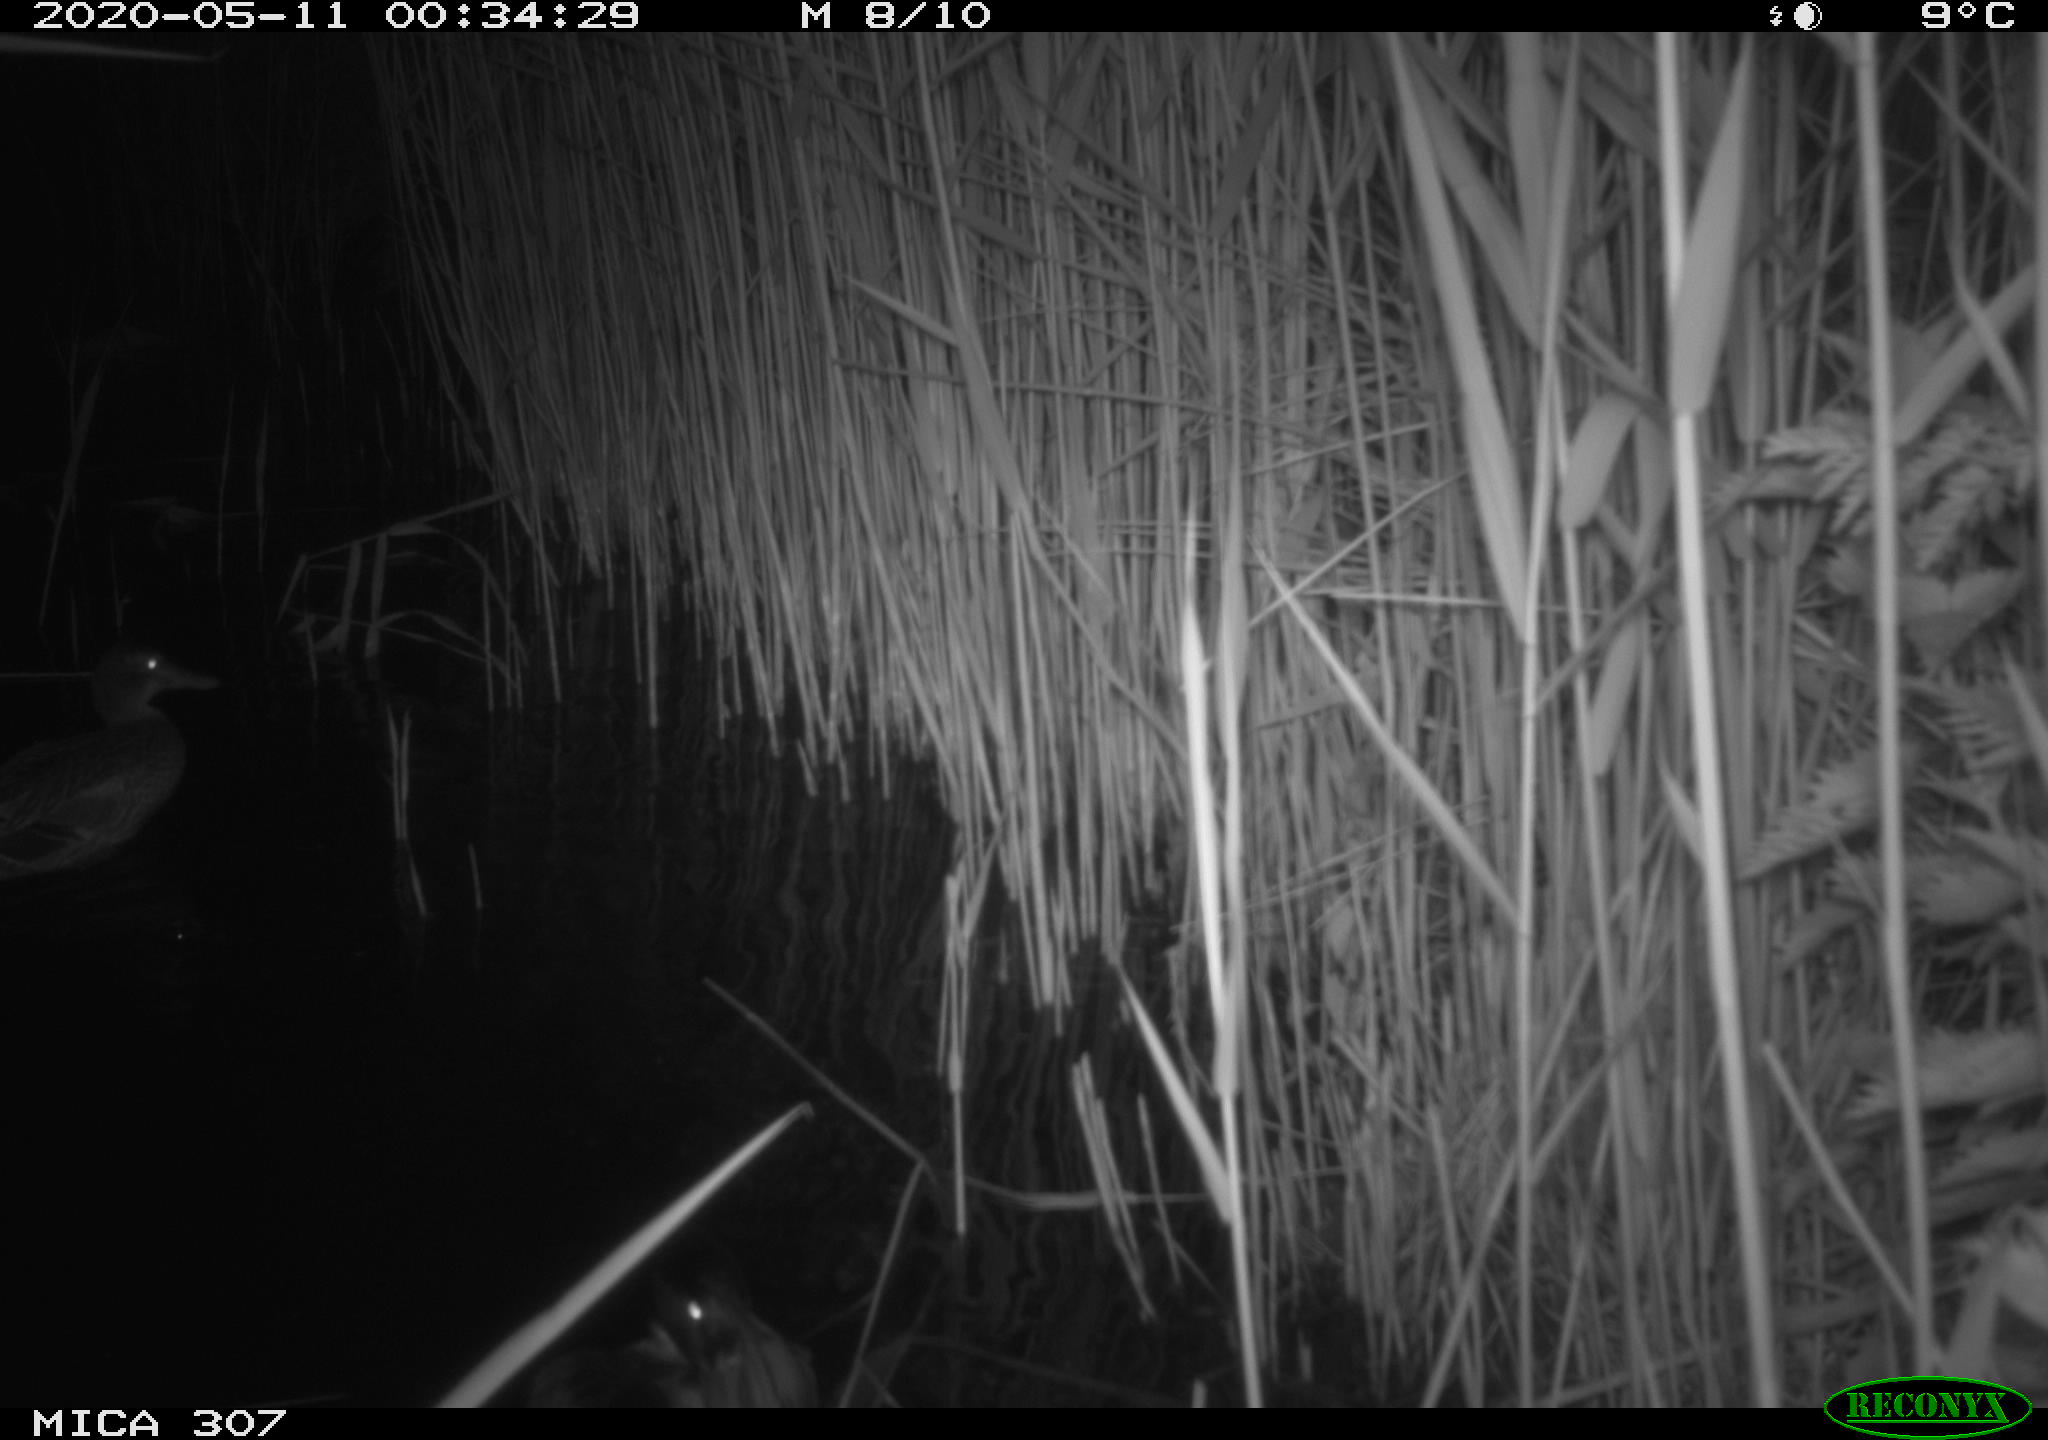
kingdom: Animalia
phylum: Chordata
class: Aves
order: Anseriformes
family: Anatidae
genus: Anas
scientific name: Anas platyrhynchos
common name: Mallard
